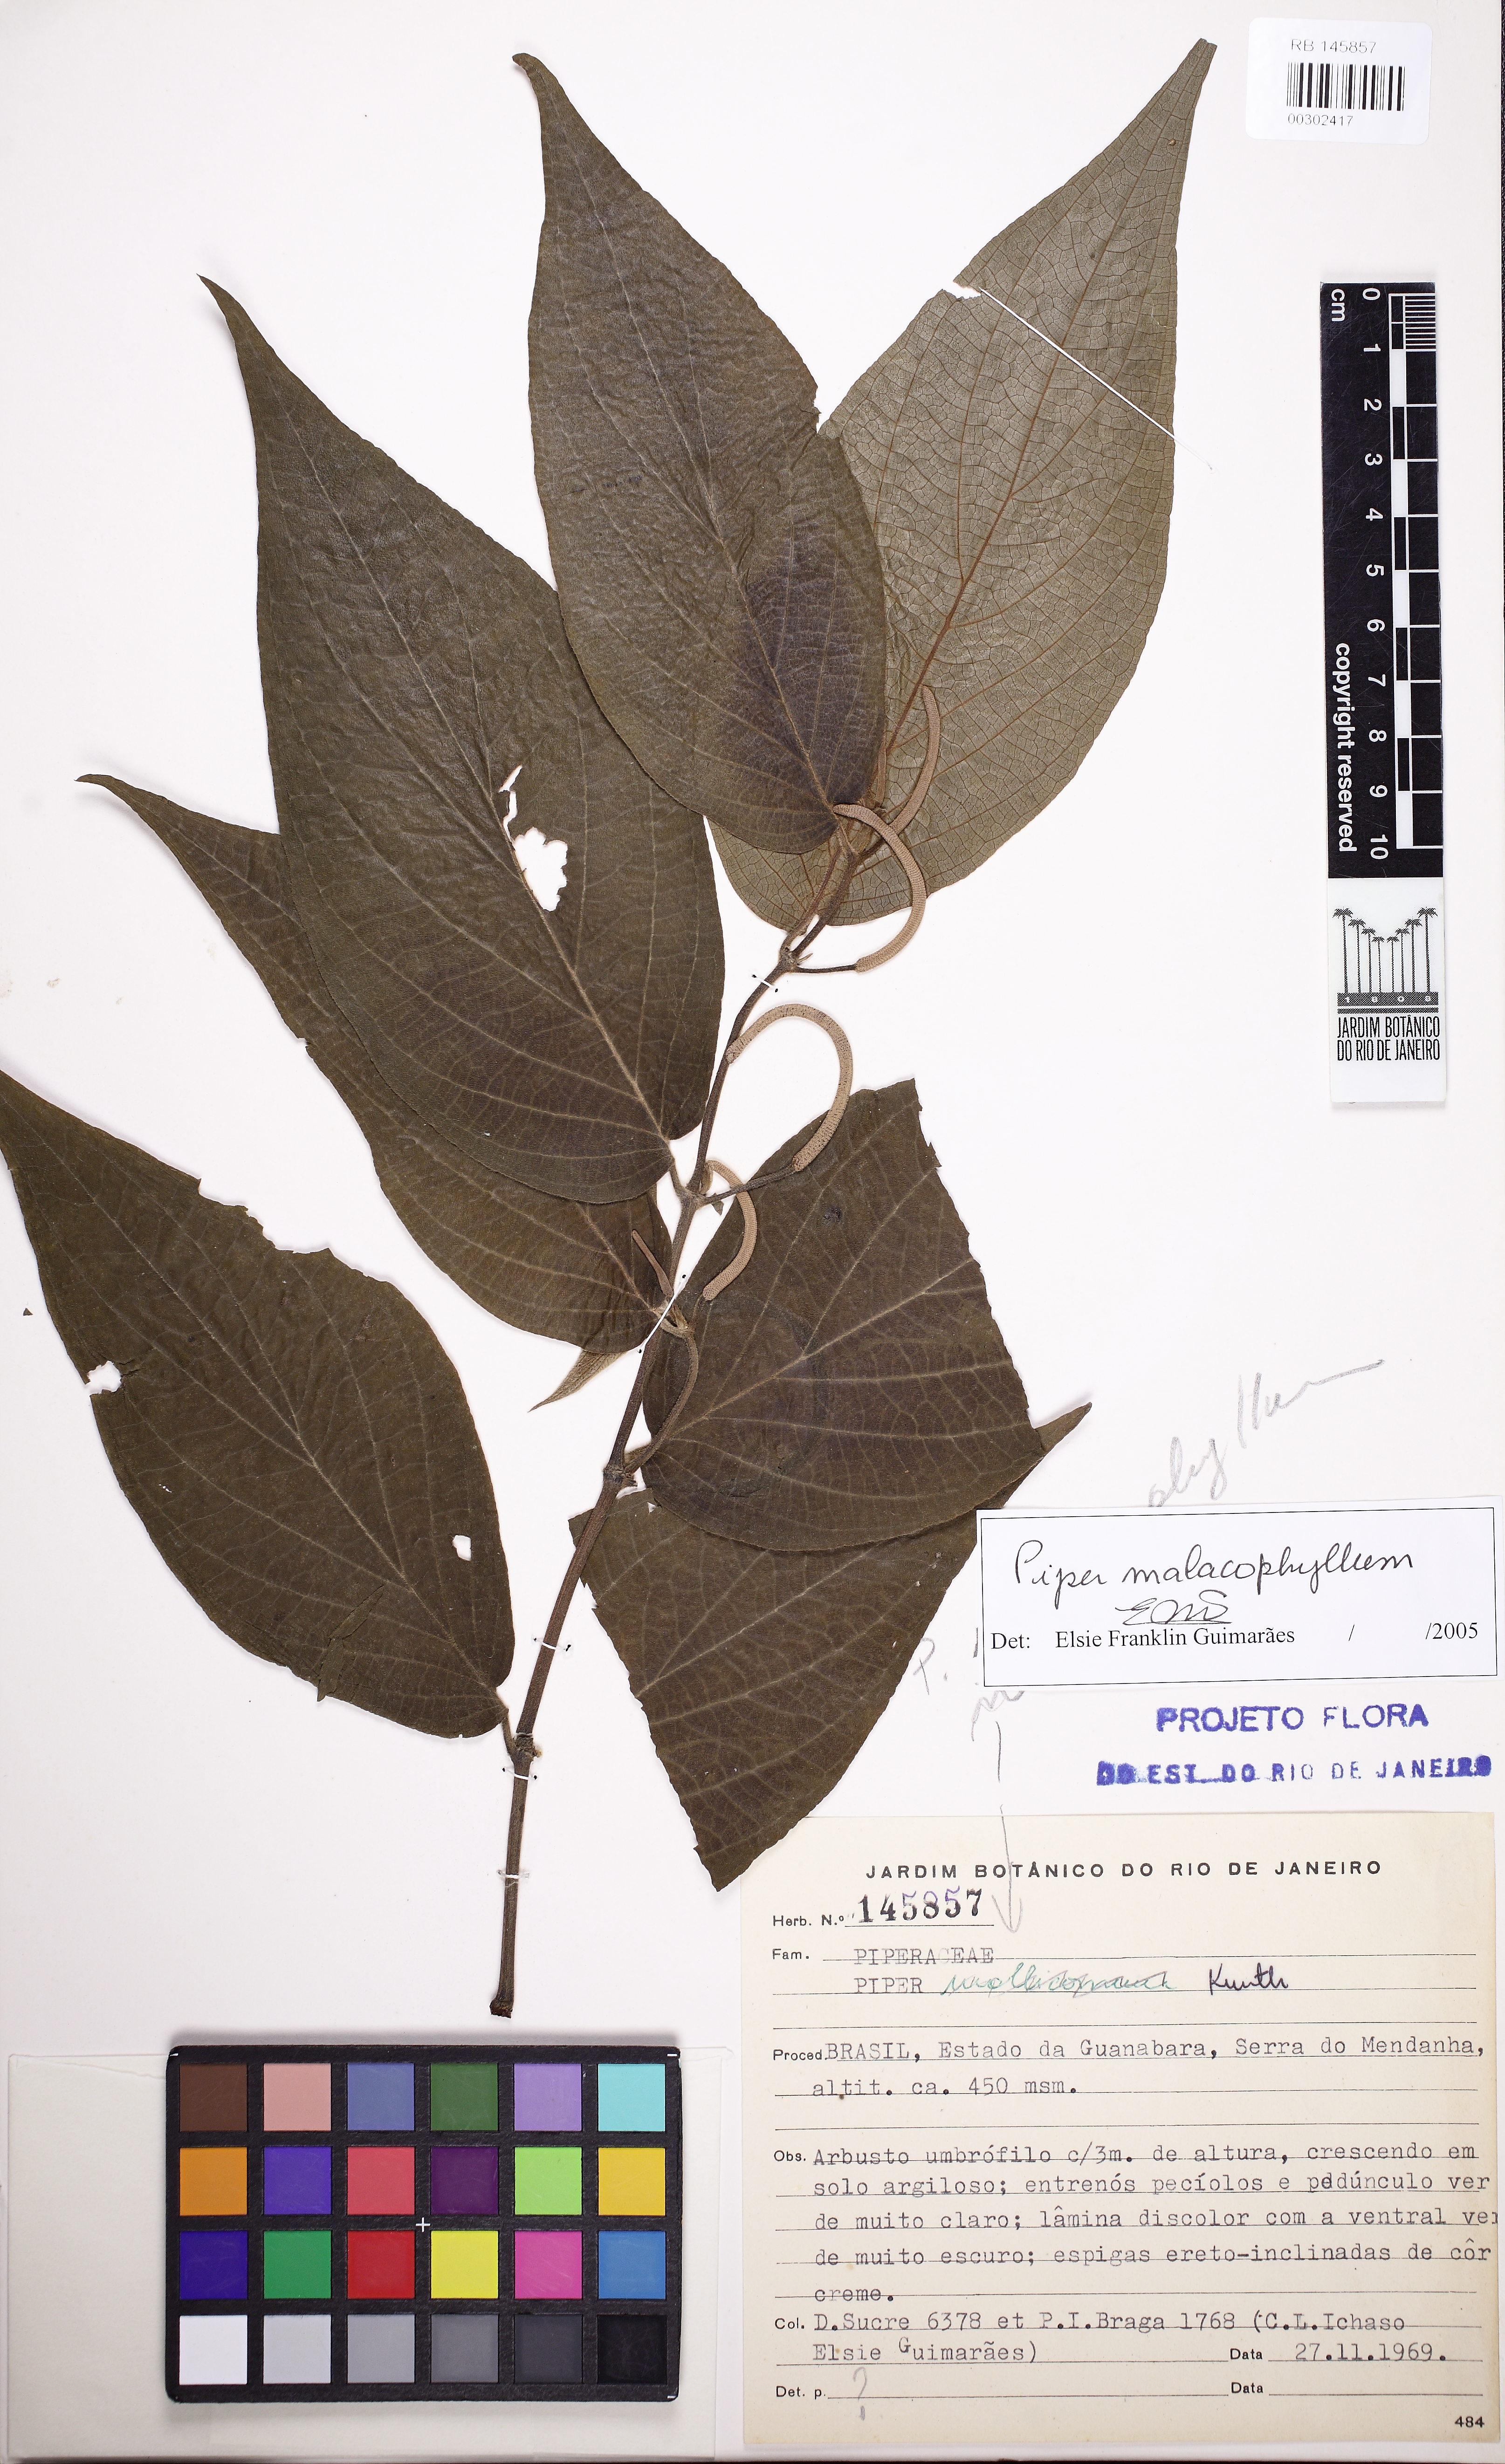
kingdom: Plantae
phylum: Tracheophyta
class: Magnoliopsida
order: Piperales
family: Piperaceae
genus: Piper
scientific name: Piper malacophyllum
